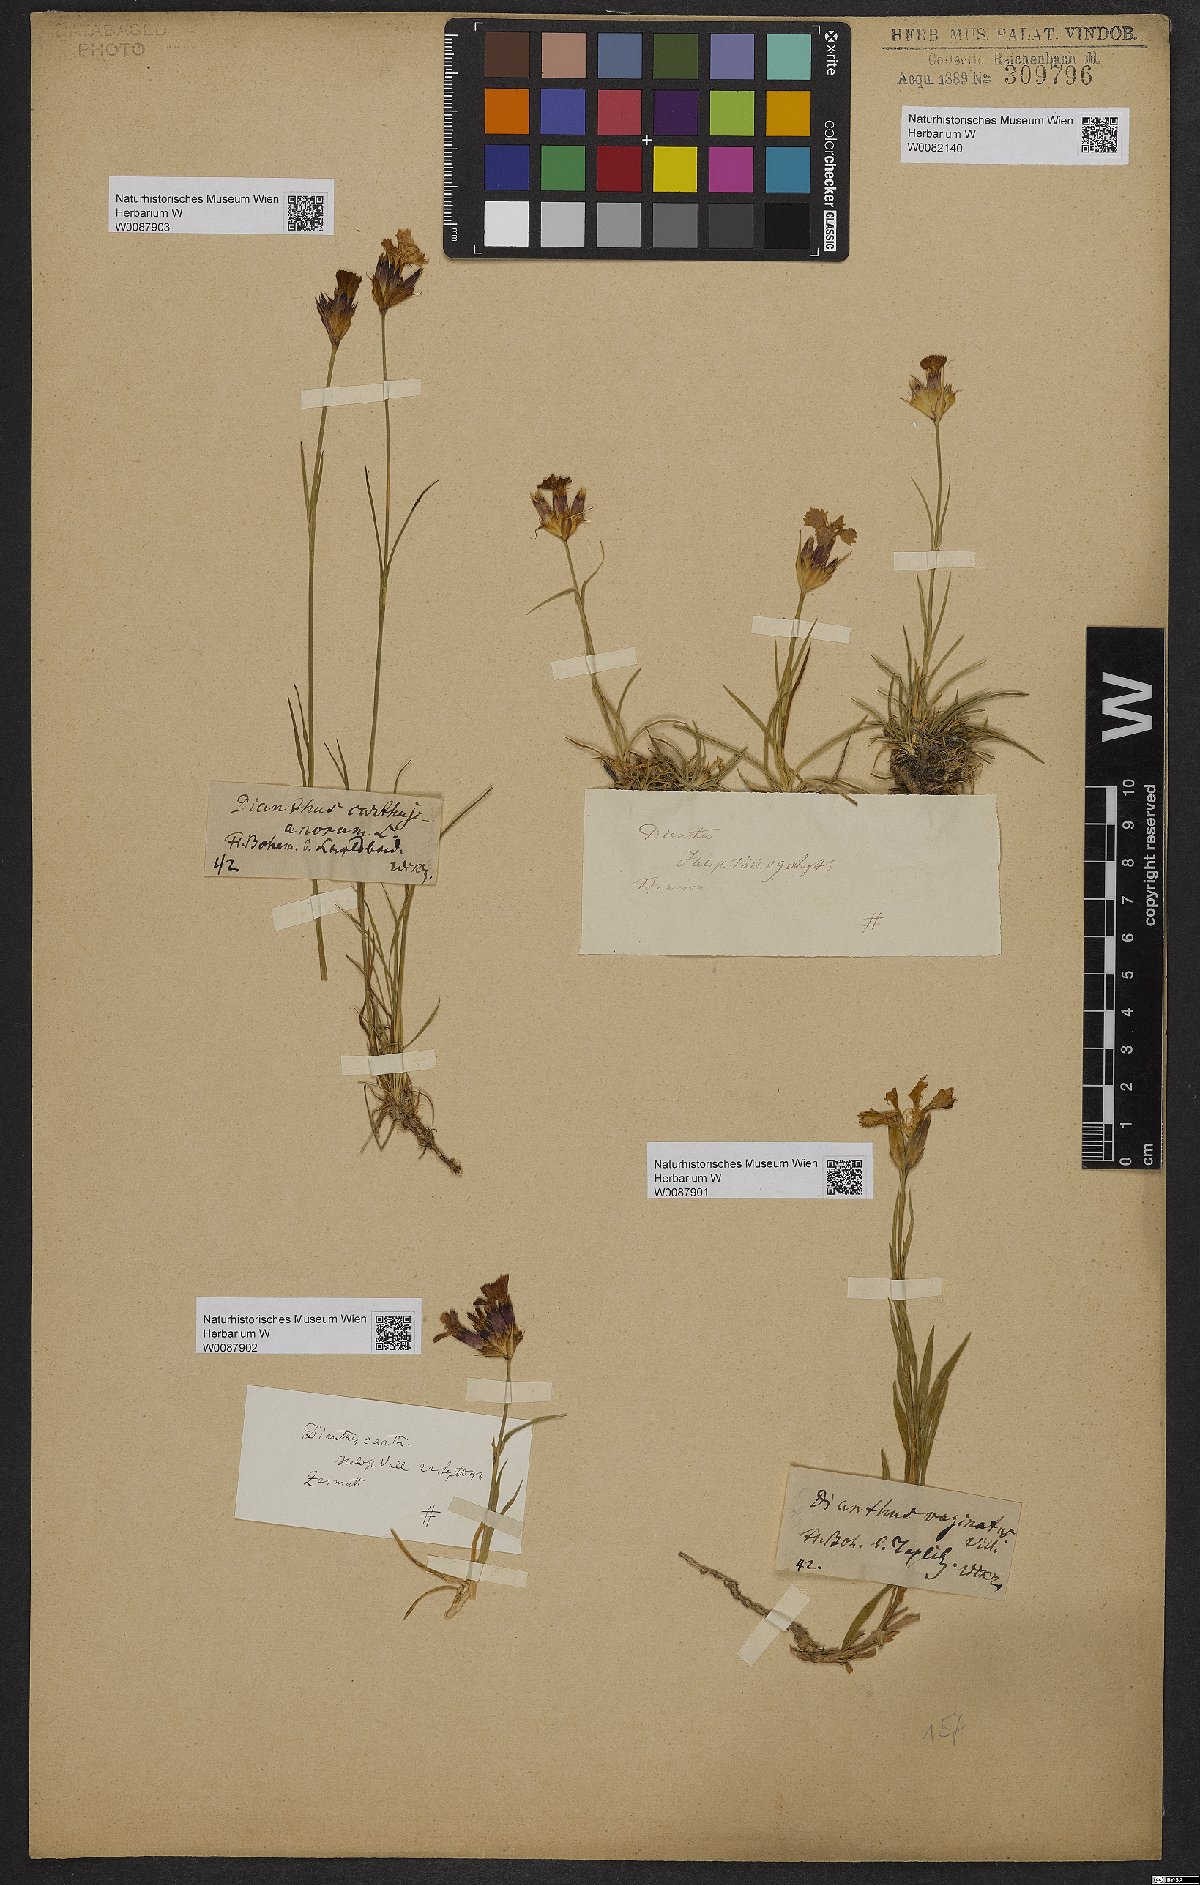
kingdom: Plantae
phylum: Tracheophyta
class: Magnoliopsida
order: Caryophyllales
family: Caryophyllaceae
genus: Dianthus
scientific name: Dianthus carthusianorum
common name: Carthusian pink
